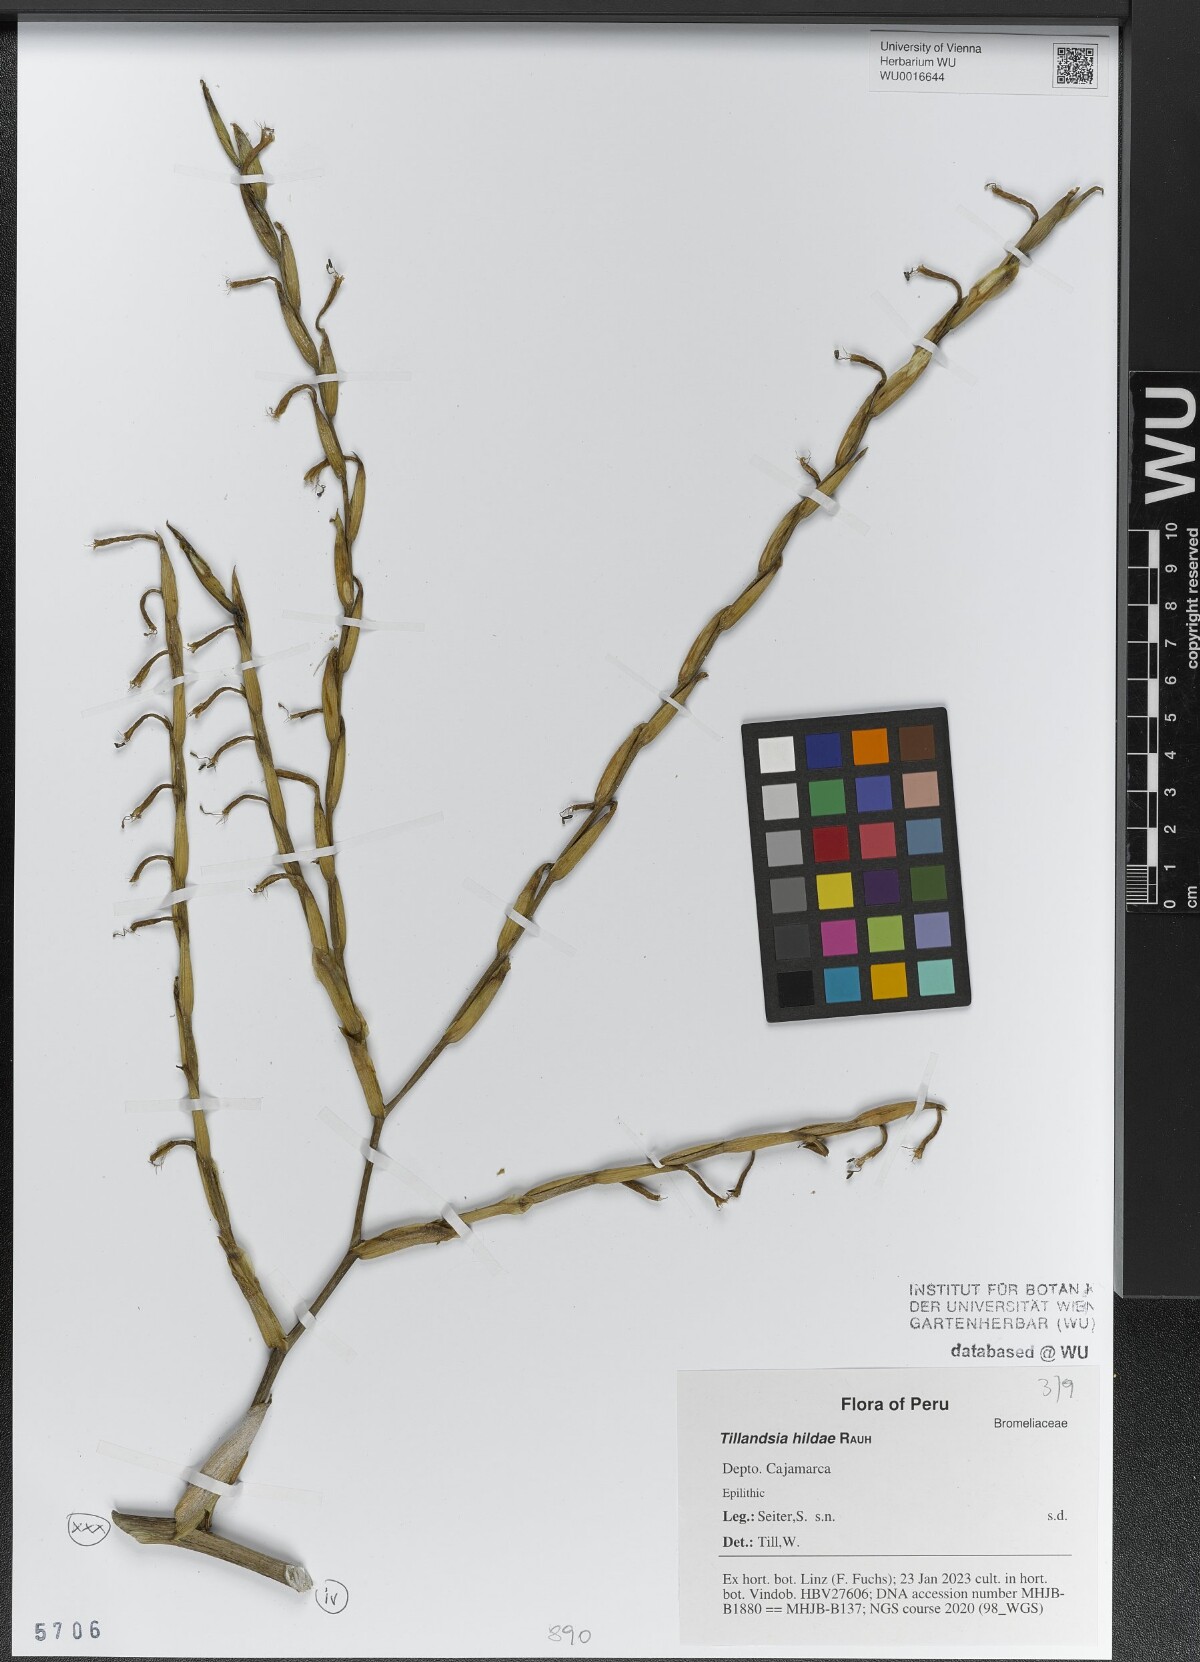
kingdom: Plantae
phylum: Tracheophyta
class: Liliopsida
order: Poales
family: Bromeliaceae
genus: Tillandsia
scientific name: Tillandsia hildae
